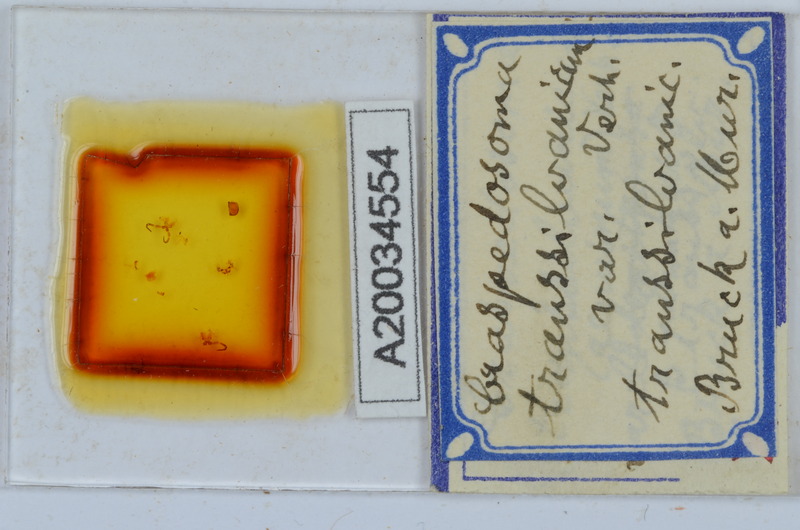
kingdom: Animalia
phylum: Arthropoda
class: Diplopoda
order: Chordeumatida
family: Craspedosomatidae
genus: Craspedosoma
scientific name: Craspedosoma rawlinsii
